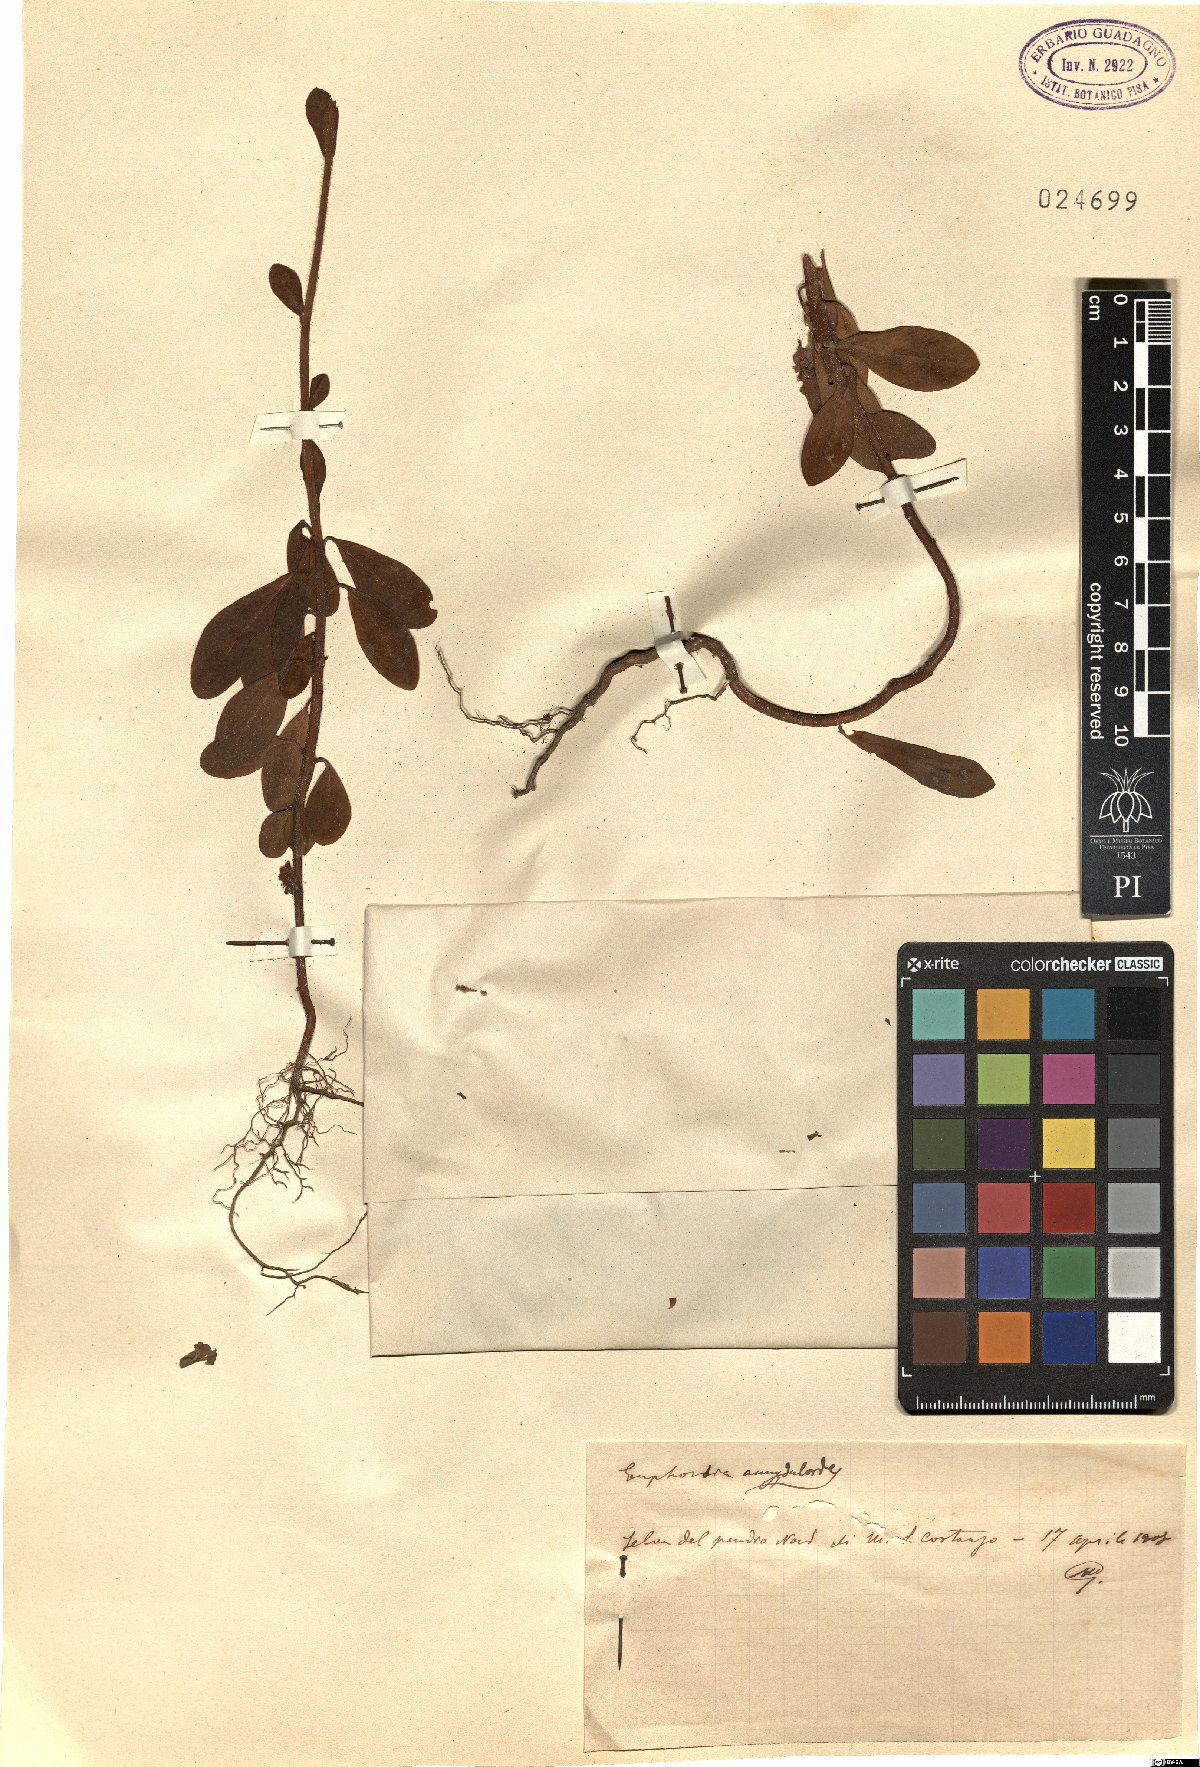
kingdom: Plantae
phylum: Tracheophyta
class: Magnoliopsida
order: Malpighiales
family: Euphorbiaceae
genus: Euphorbia
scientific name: Euphorbia amygdaloides
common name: Wood spurge
